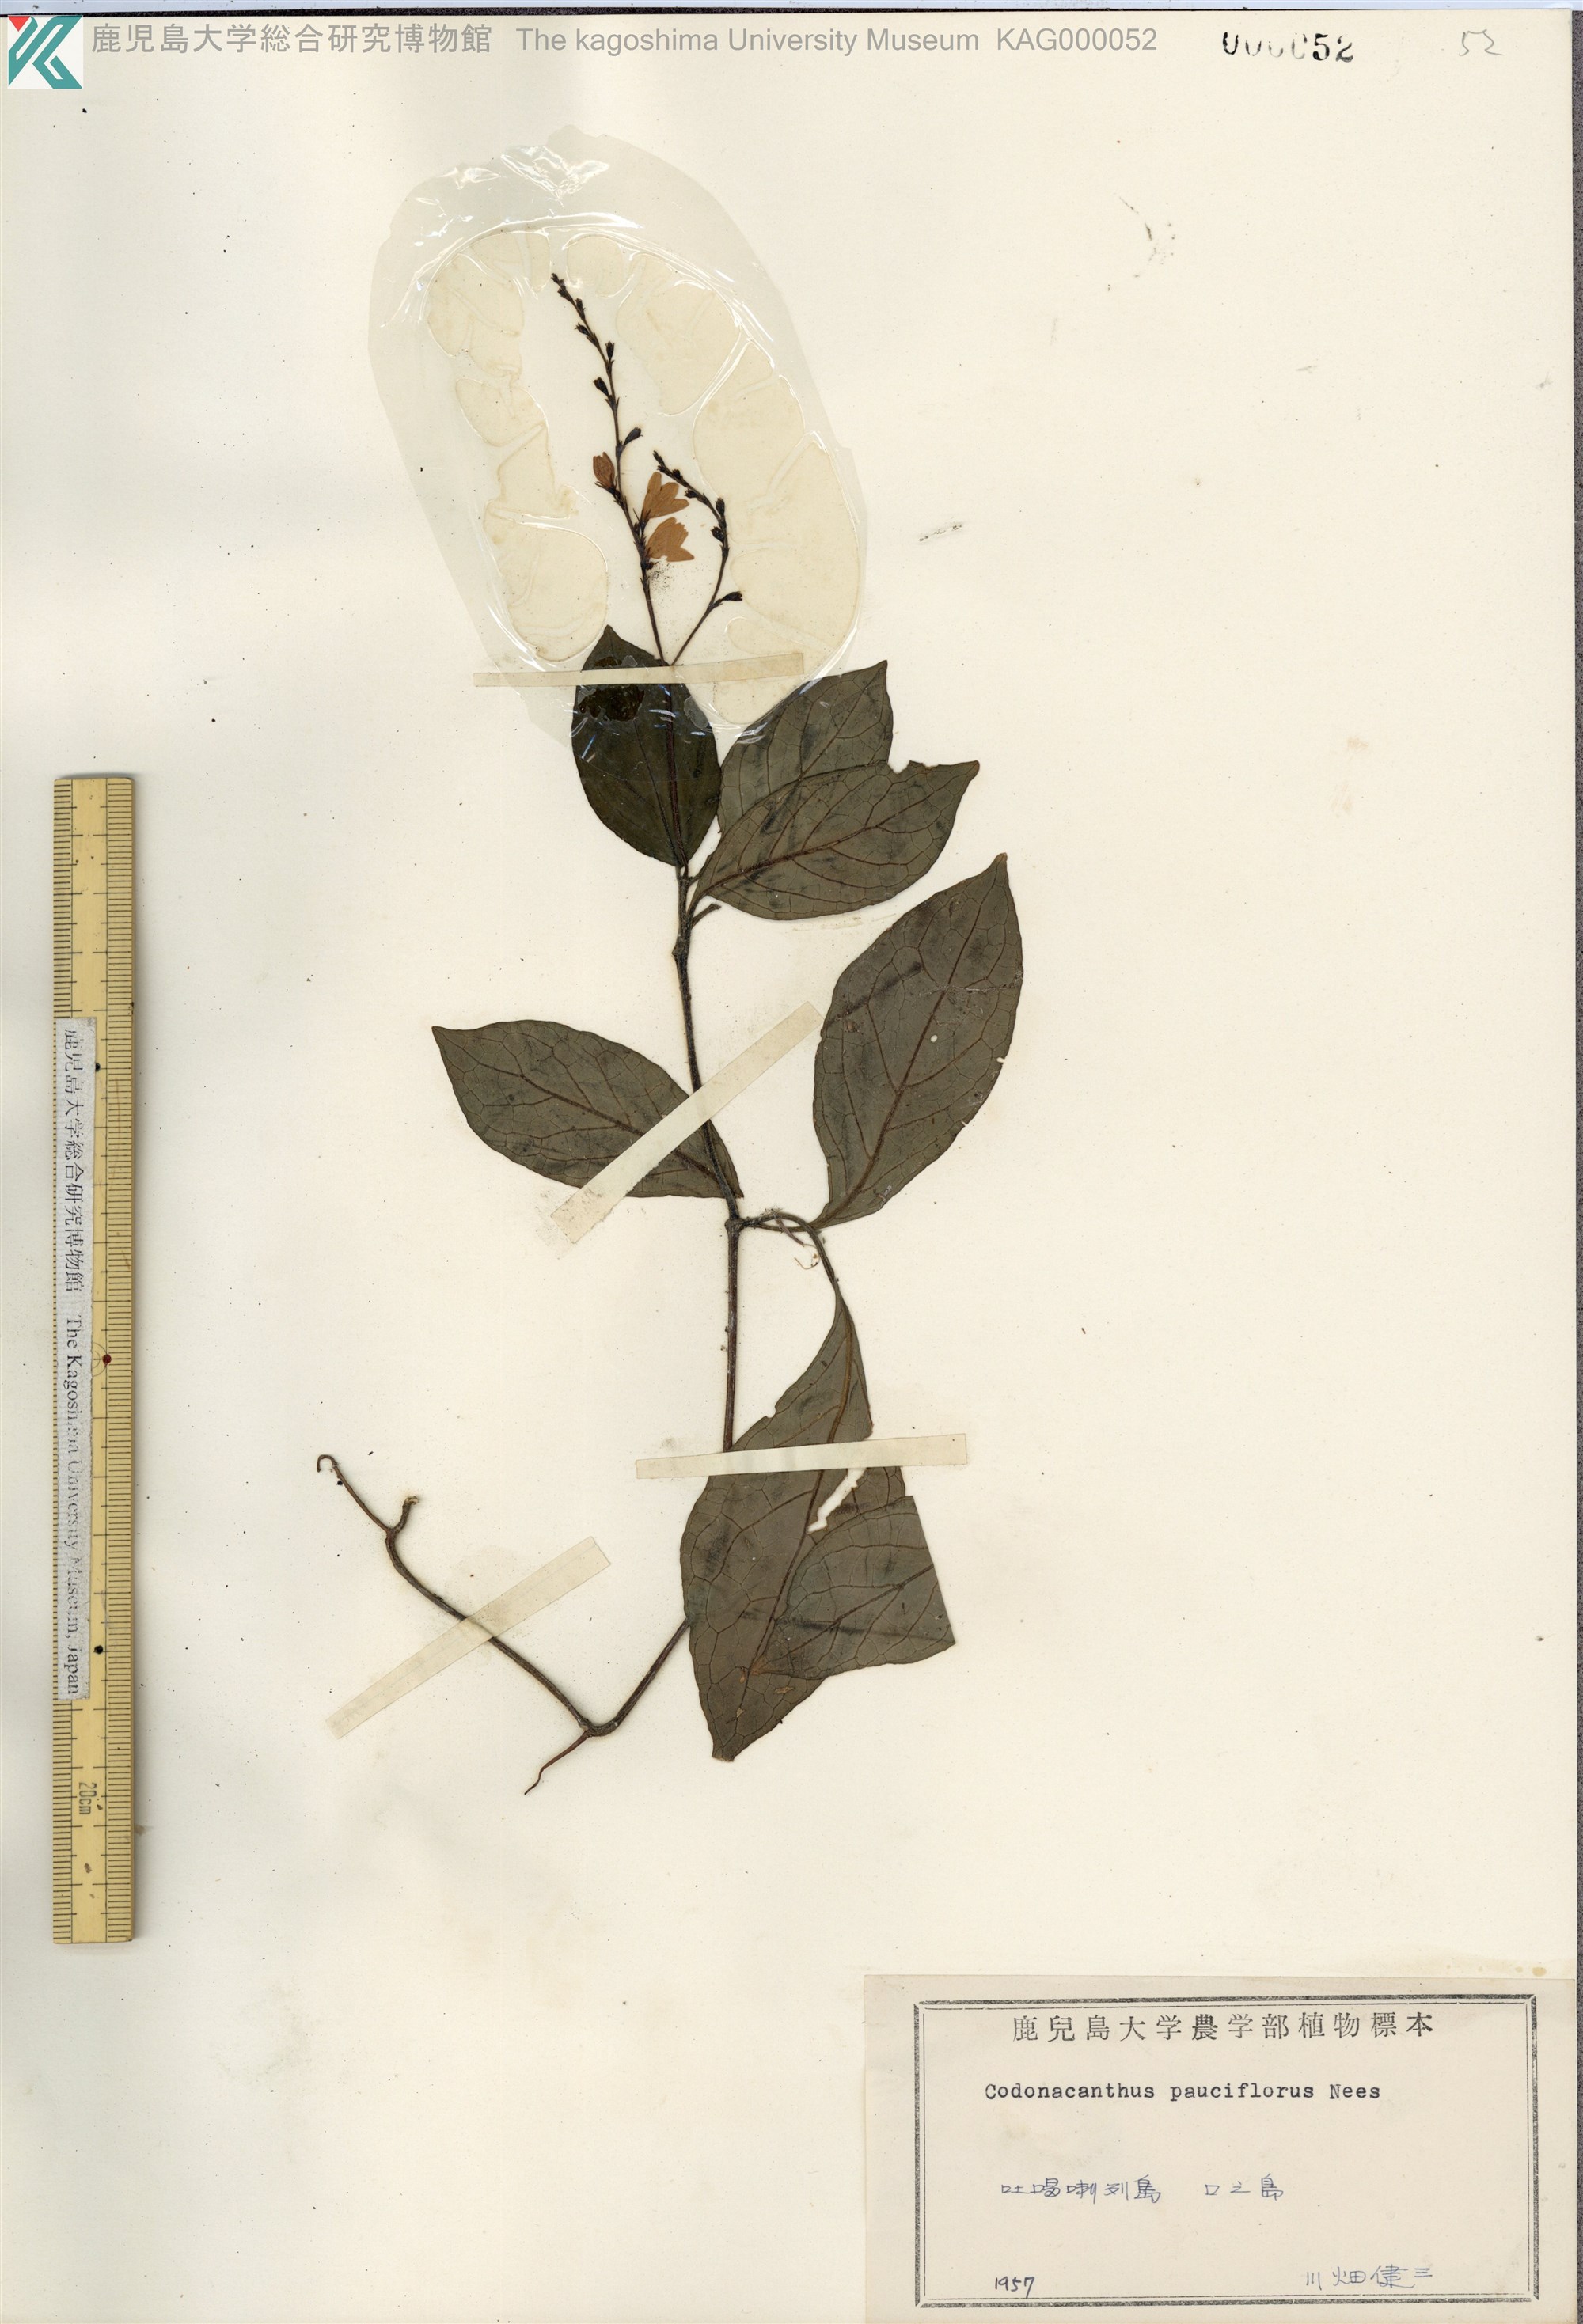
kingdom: Plantae
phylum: Tracheophyta
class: Magnoliopsida
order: Lamiales
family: Acanthaceae
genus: Codonacanthus
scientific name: Codonacanthus pauciflorus
